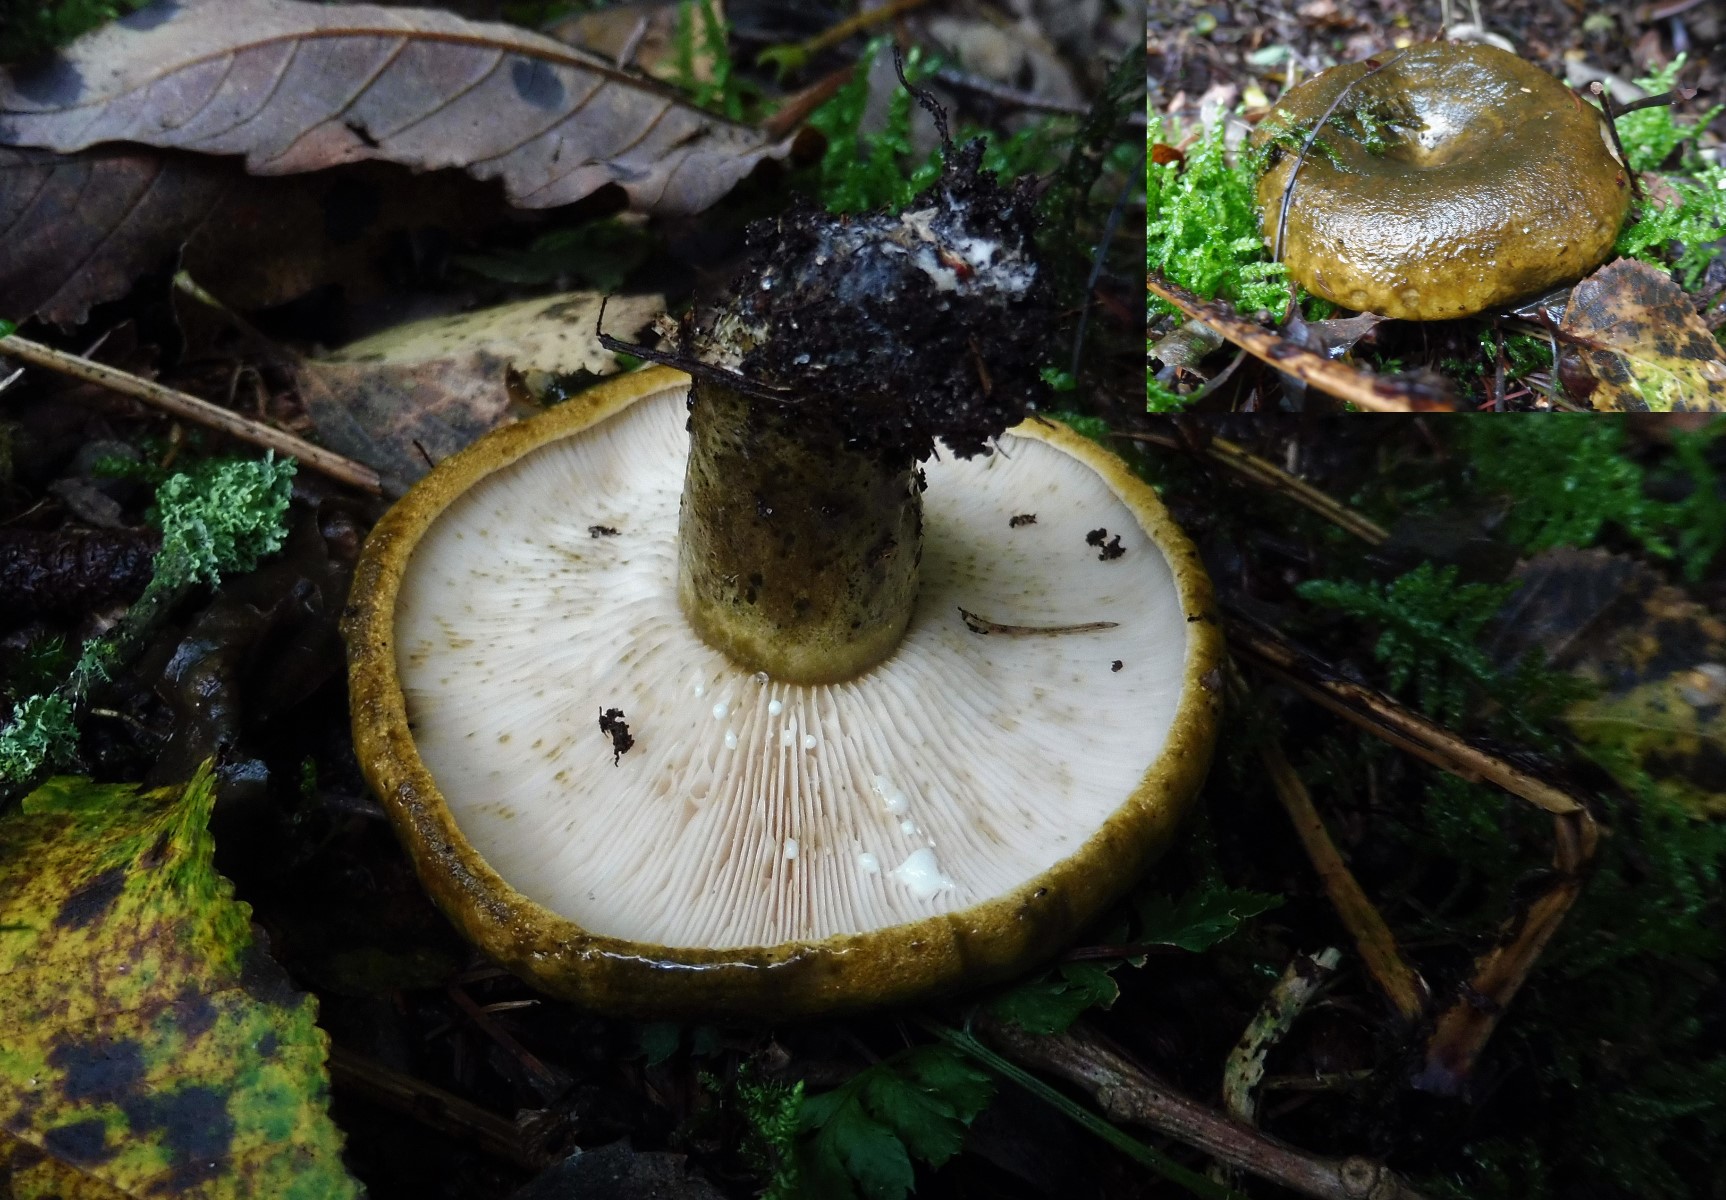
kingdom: Fungi
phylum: Basidiomycota
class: Agaricomycetes
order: Russulales
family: Russulaceae
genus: Lactarius
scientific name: Lactarius necator
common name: manddraber-mælkehat
